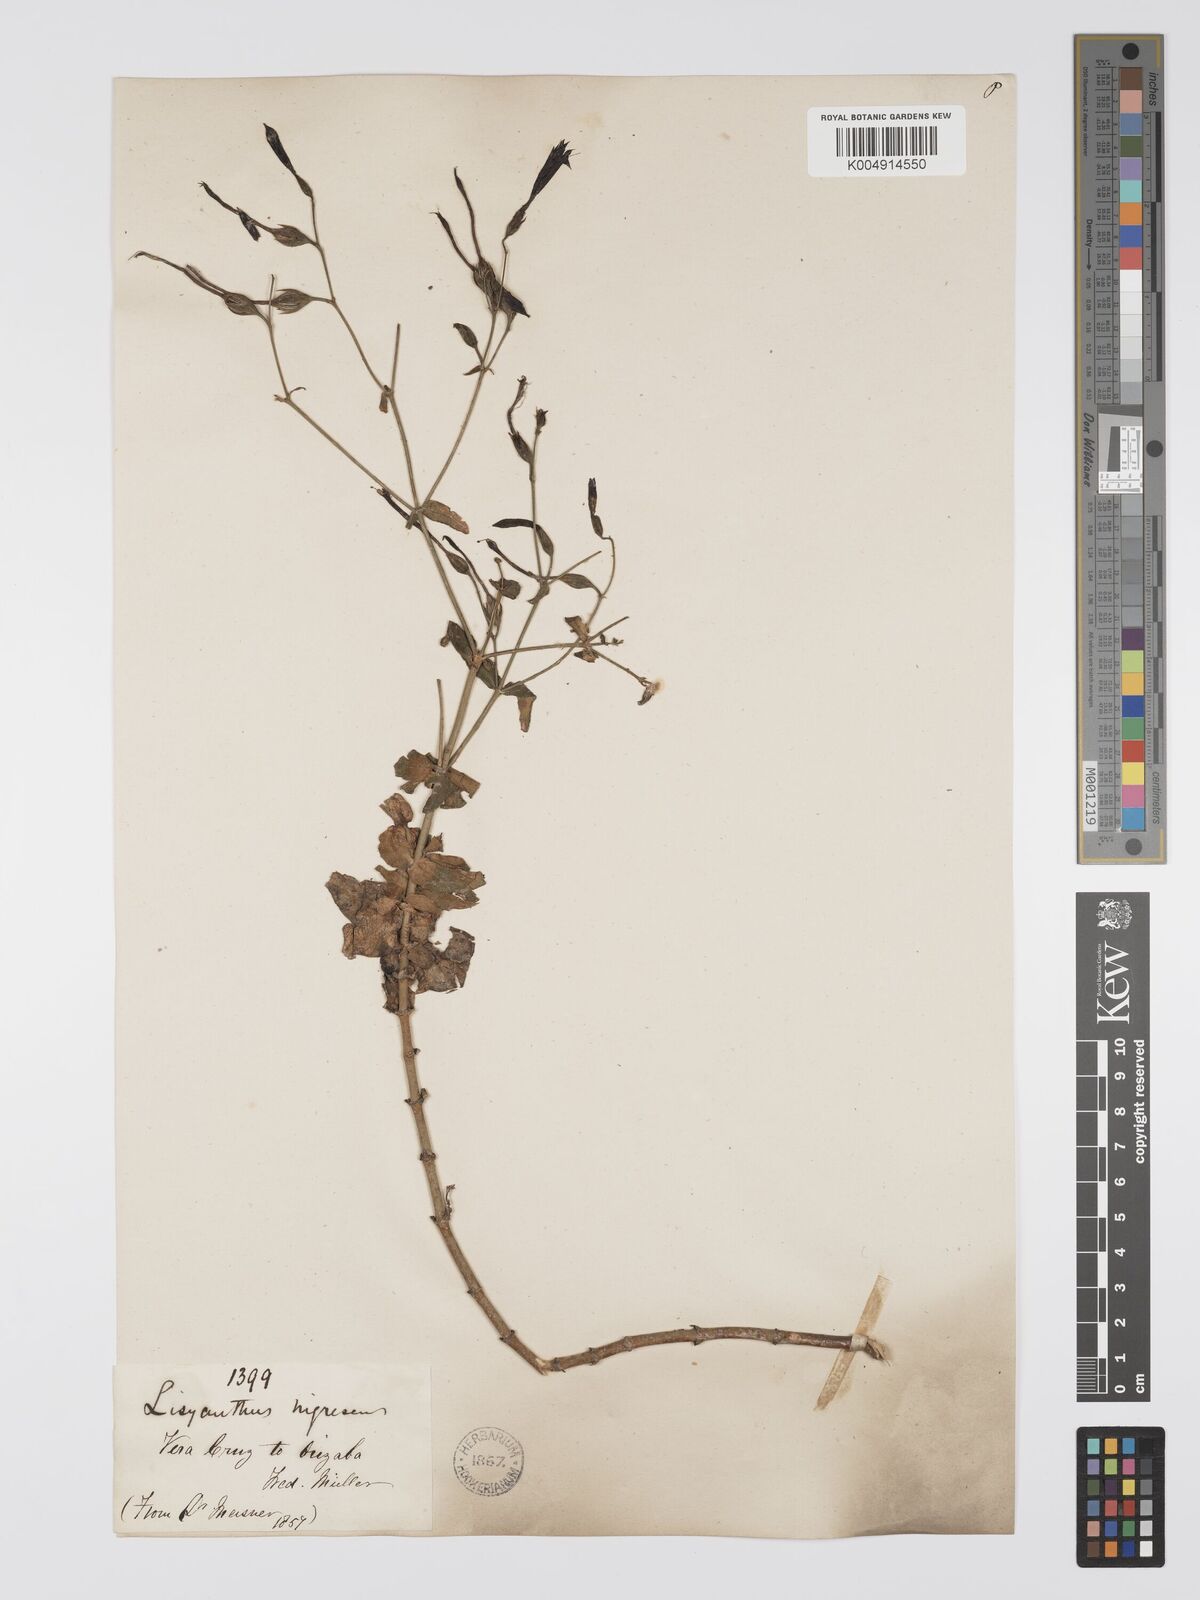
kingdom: Plantae
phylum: Tracheophyta
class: Magnoliopsida
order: Gentianales
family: Gentianaceae
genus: Lisianthus
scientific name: Lisianthus nigrescens
